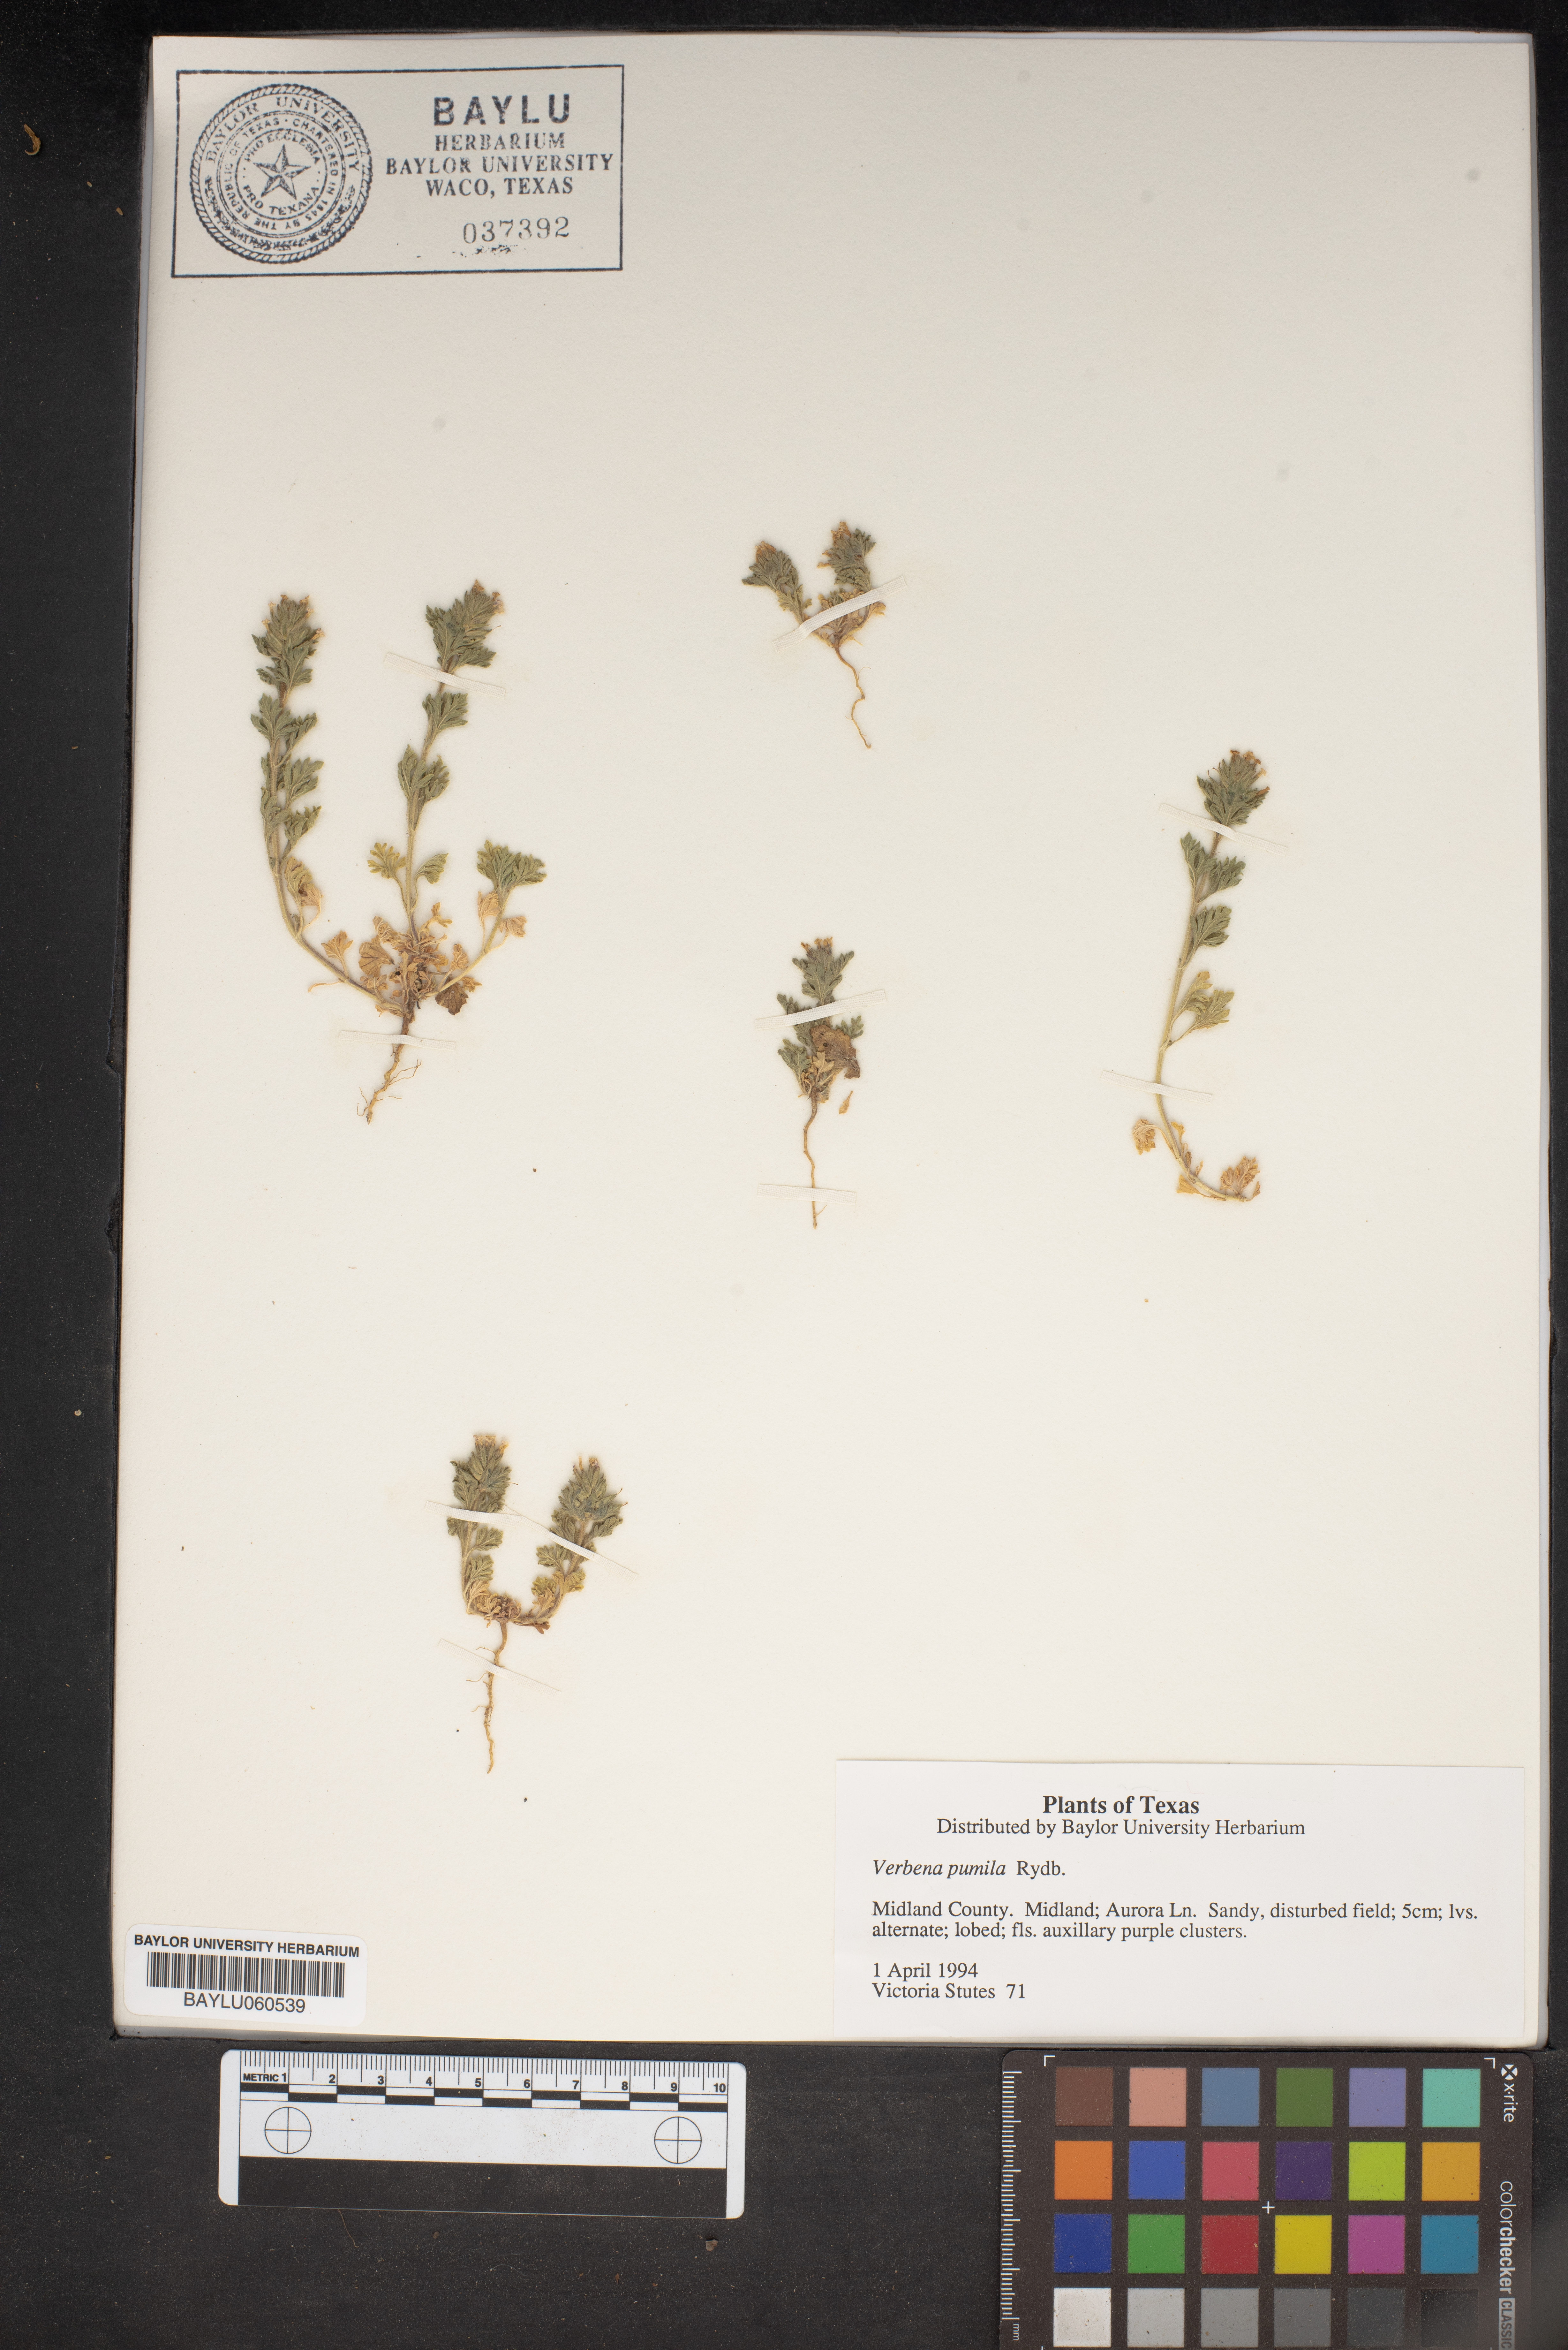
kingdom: Plantae
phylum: Tracheophyta
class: Magnoliopsida
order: Lamiales
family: Verbenaceae
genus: Verbena
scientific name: Verbena pumila
